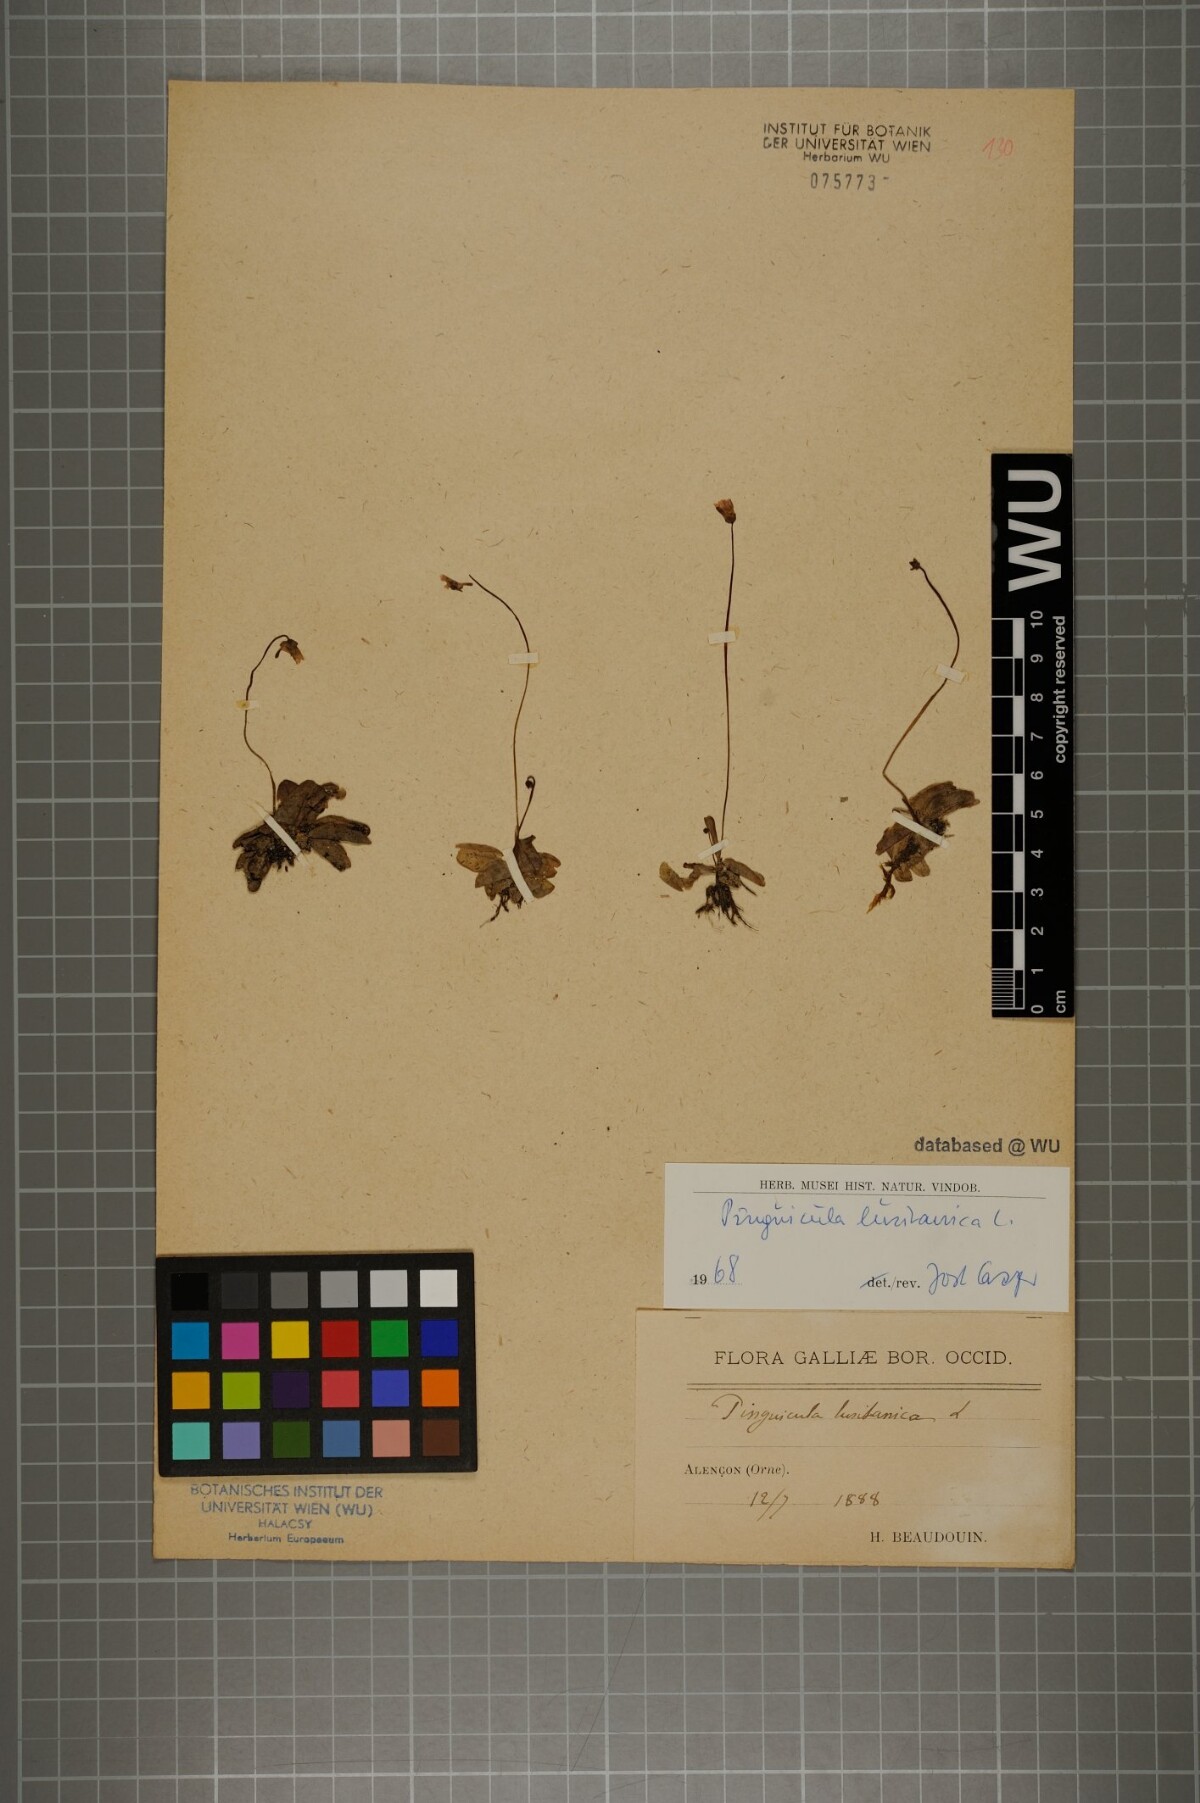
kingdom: Plantae
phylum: Tracheophyta
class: Magnoliopsida
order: Lamiales
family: Lentibulariaceae
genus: Pinguicula
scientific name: Pinguicula lusitanica
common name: Pale butterwort
